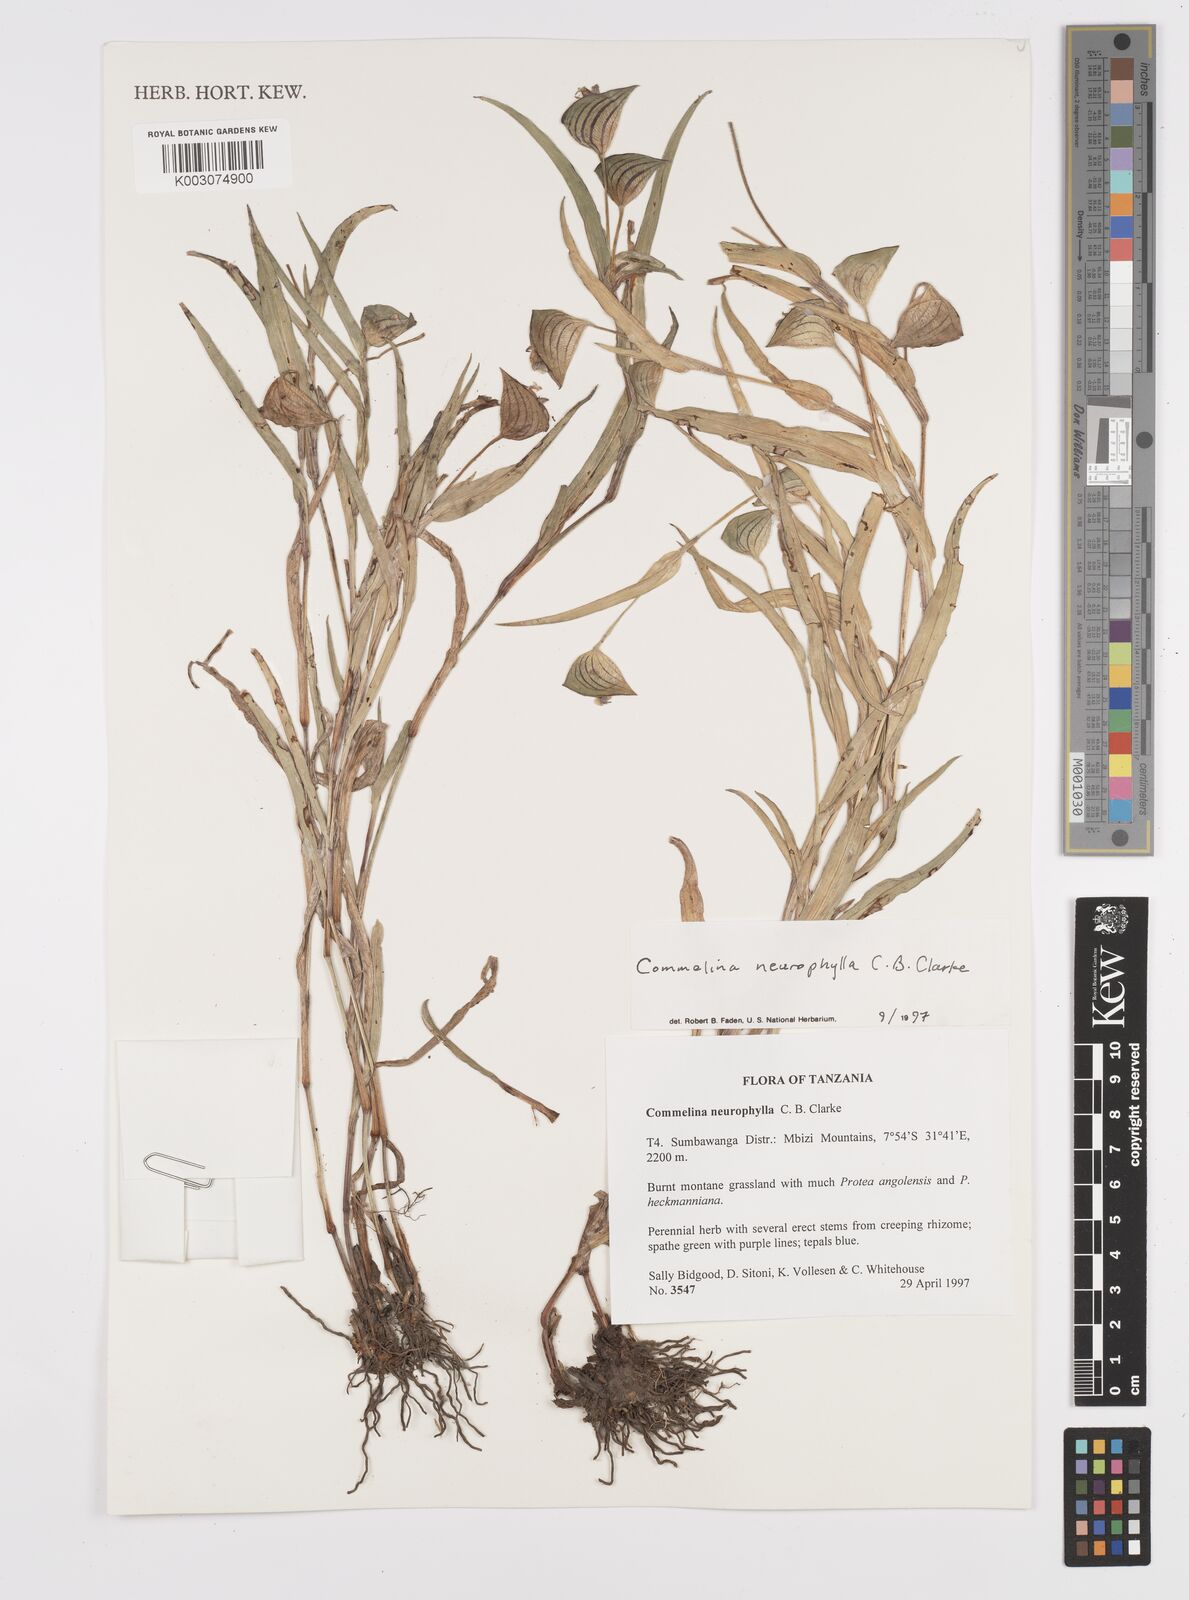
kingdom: Plantae
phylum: Tracheophyta
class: Liliopsida
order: Commelinales
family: Commelinaceae
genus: Commelina
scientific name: Commelina neurophylla
